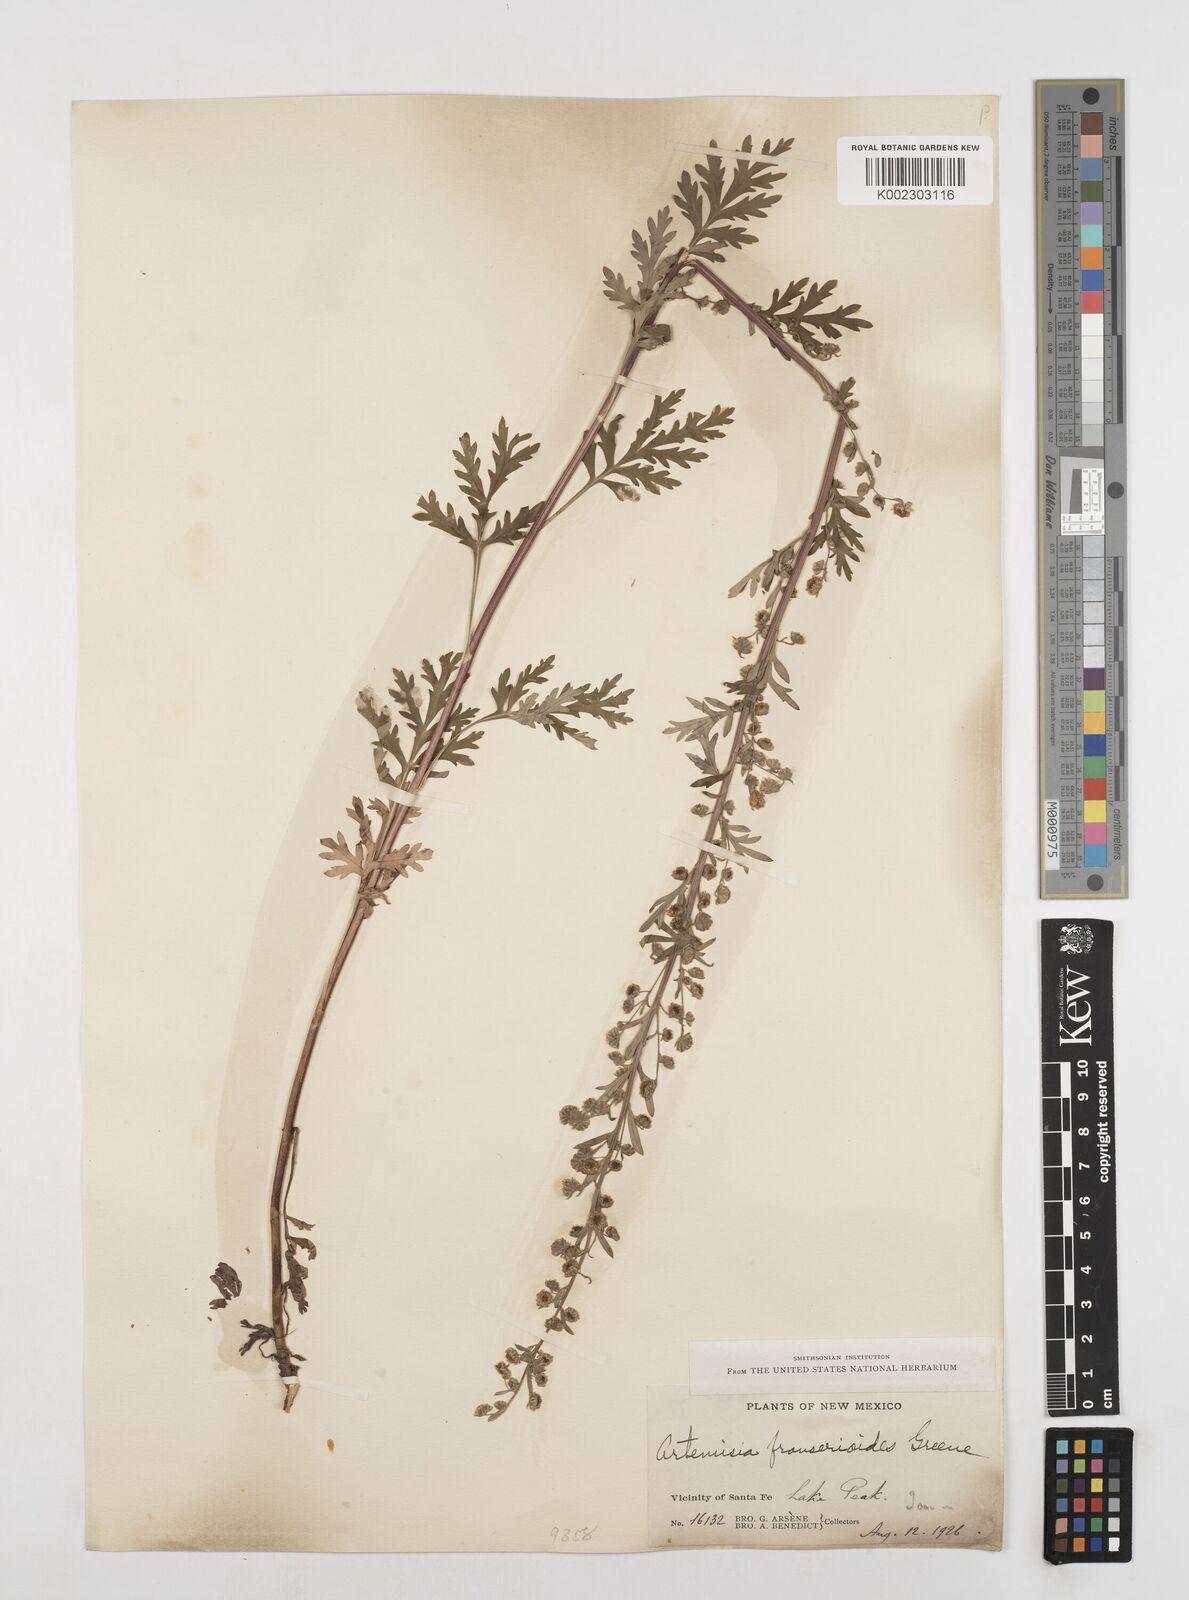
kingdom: Plantae
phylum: Tracheophyta
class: Magnoliopsida
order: Asterales
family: Asteraceae
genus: Artemisia
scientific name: Artemisia franserioides
